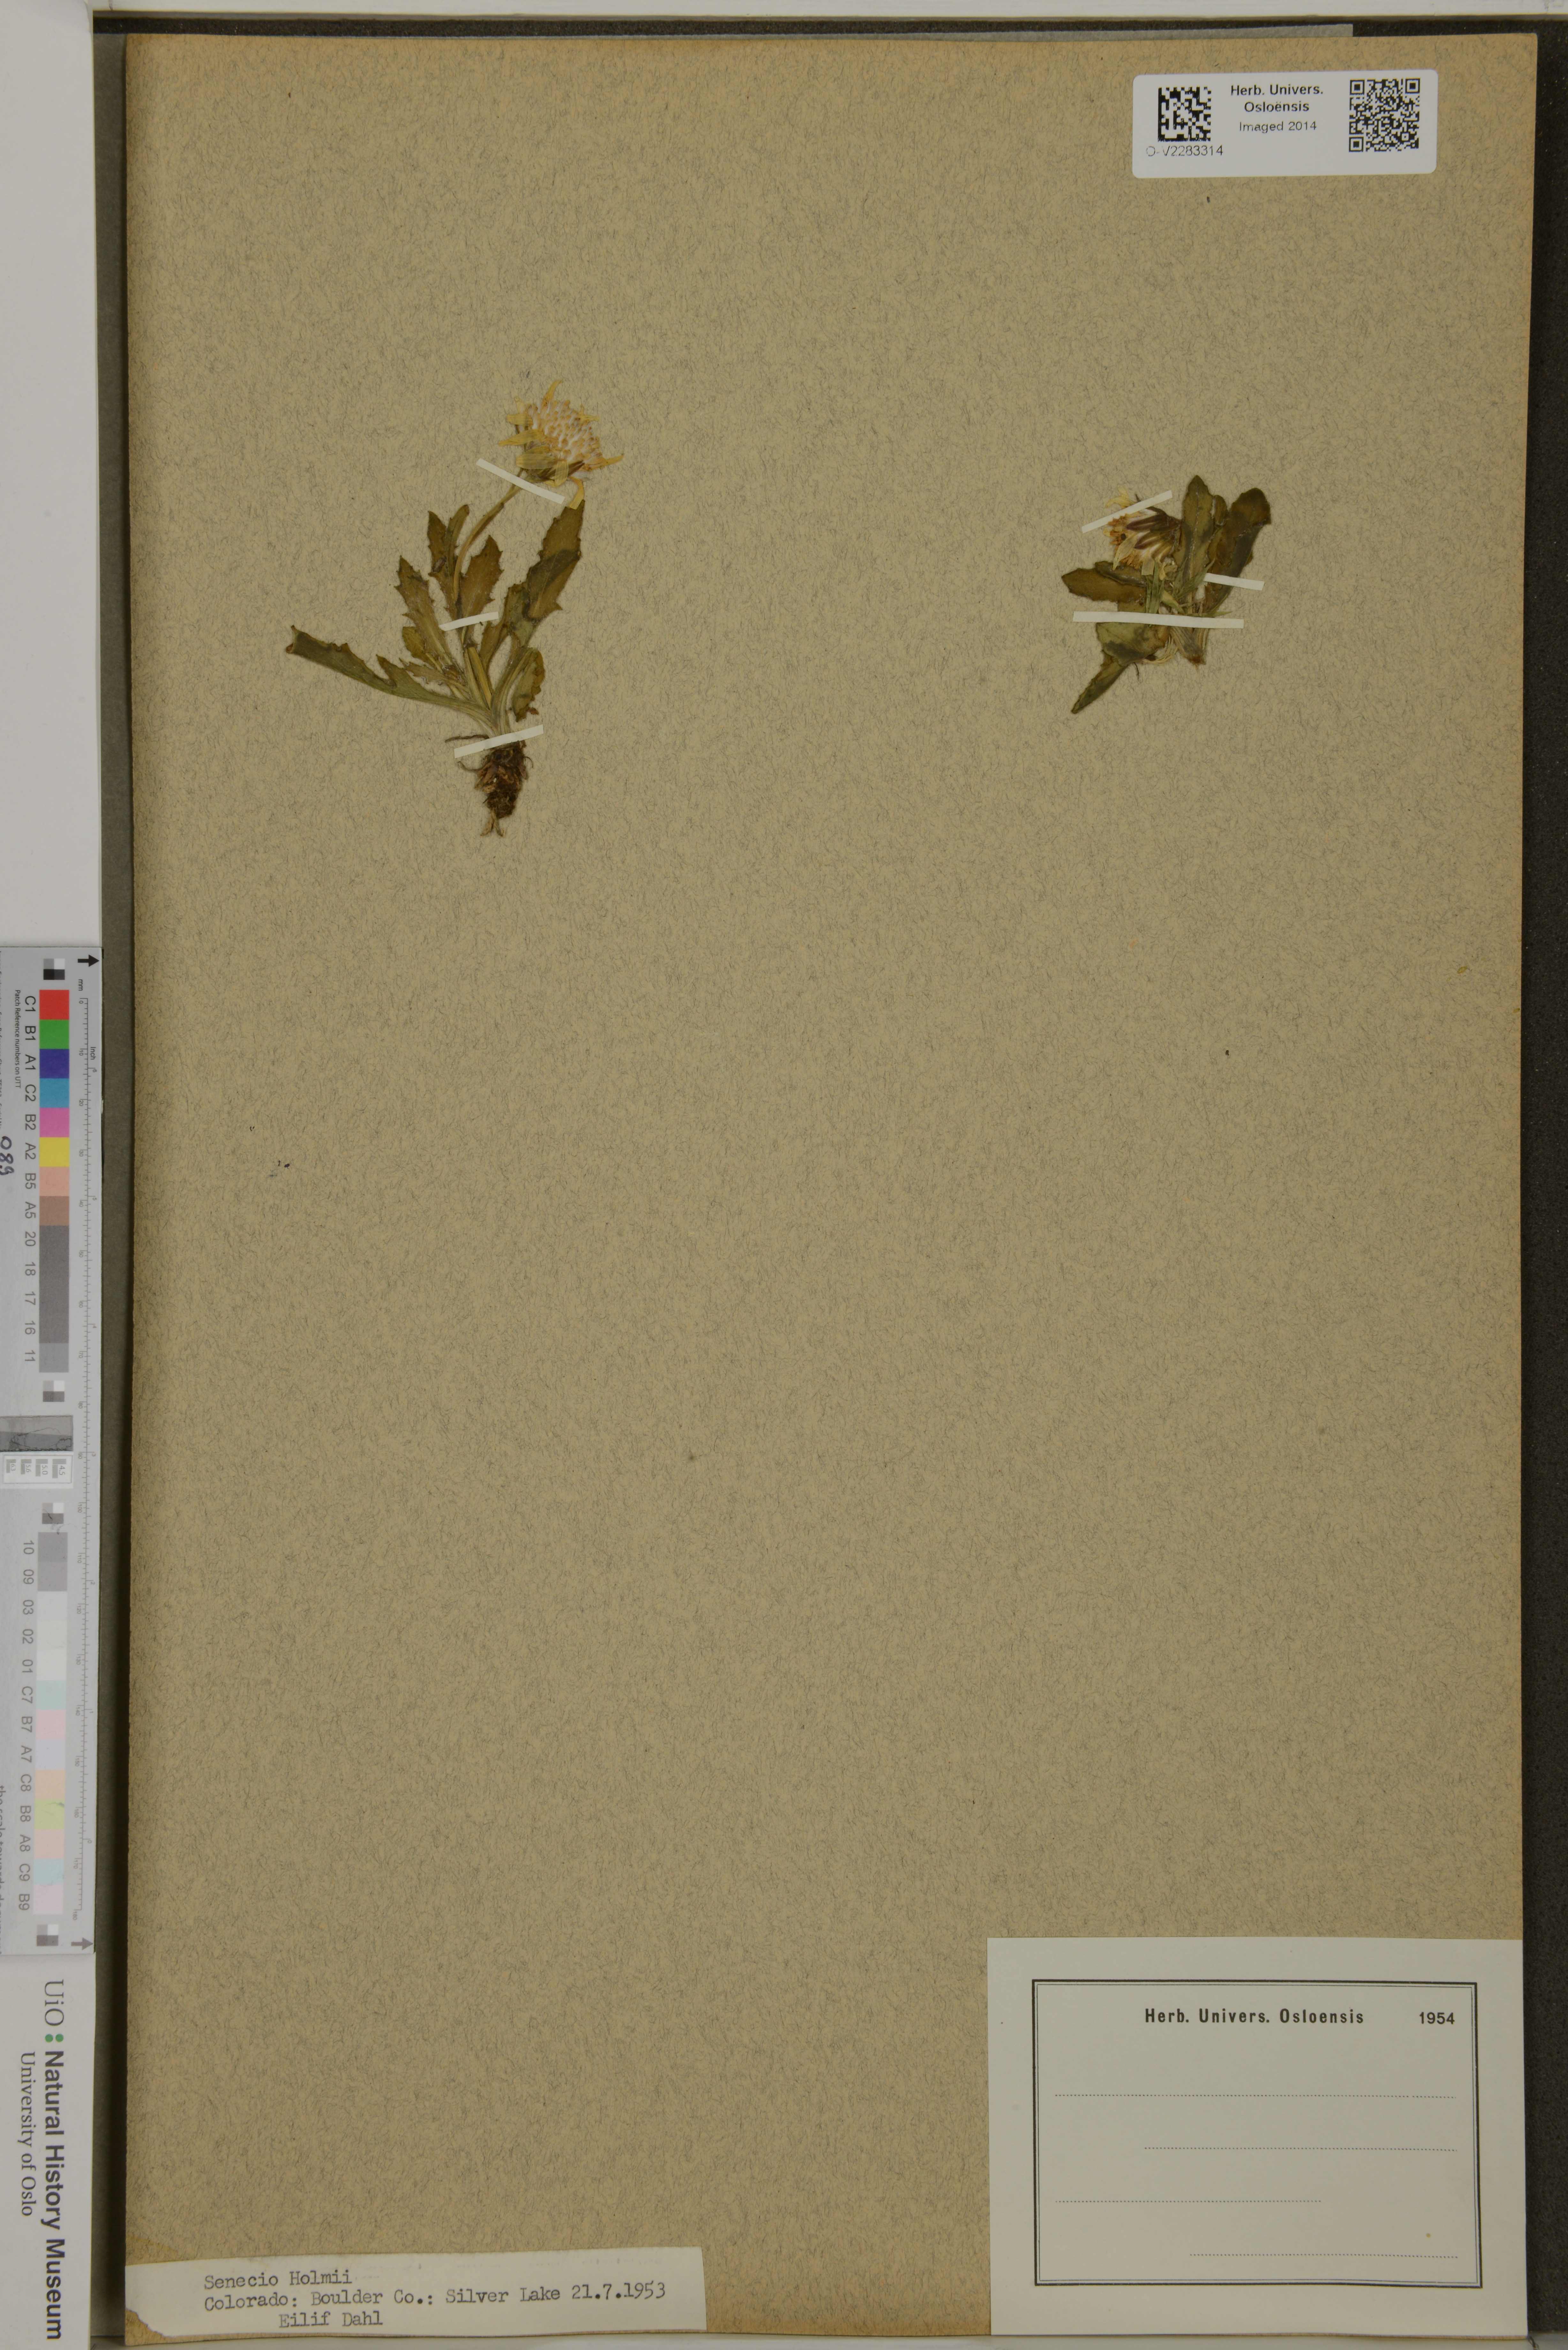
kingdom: Plantae
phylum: Tracheophyta
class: Magnoliopsida
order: Asterales
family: Asteraceae
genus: Senecio
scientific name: Senecio amplectens
